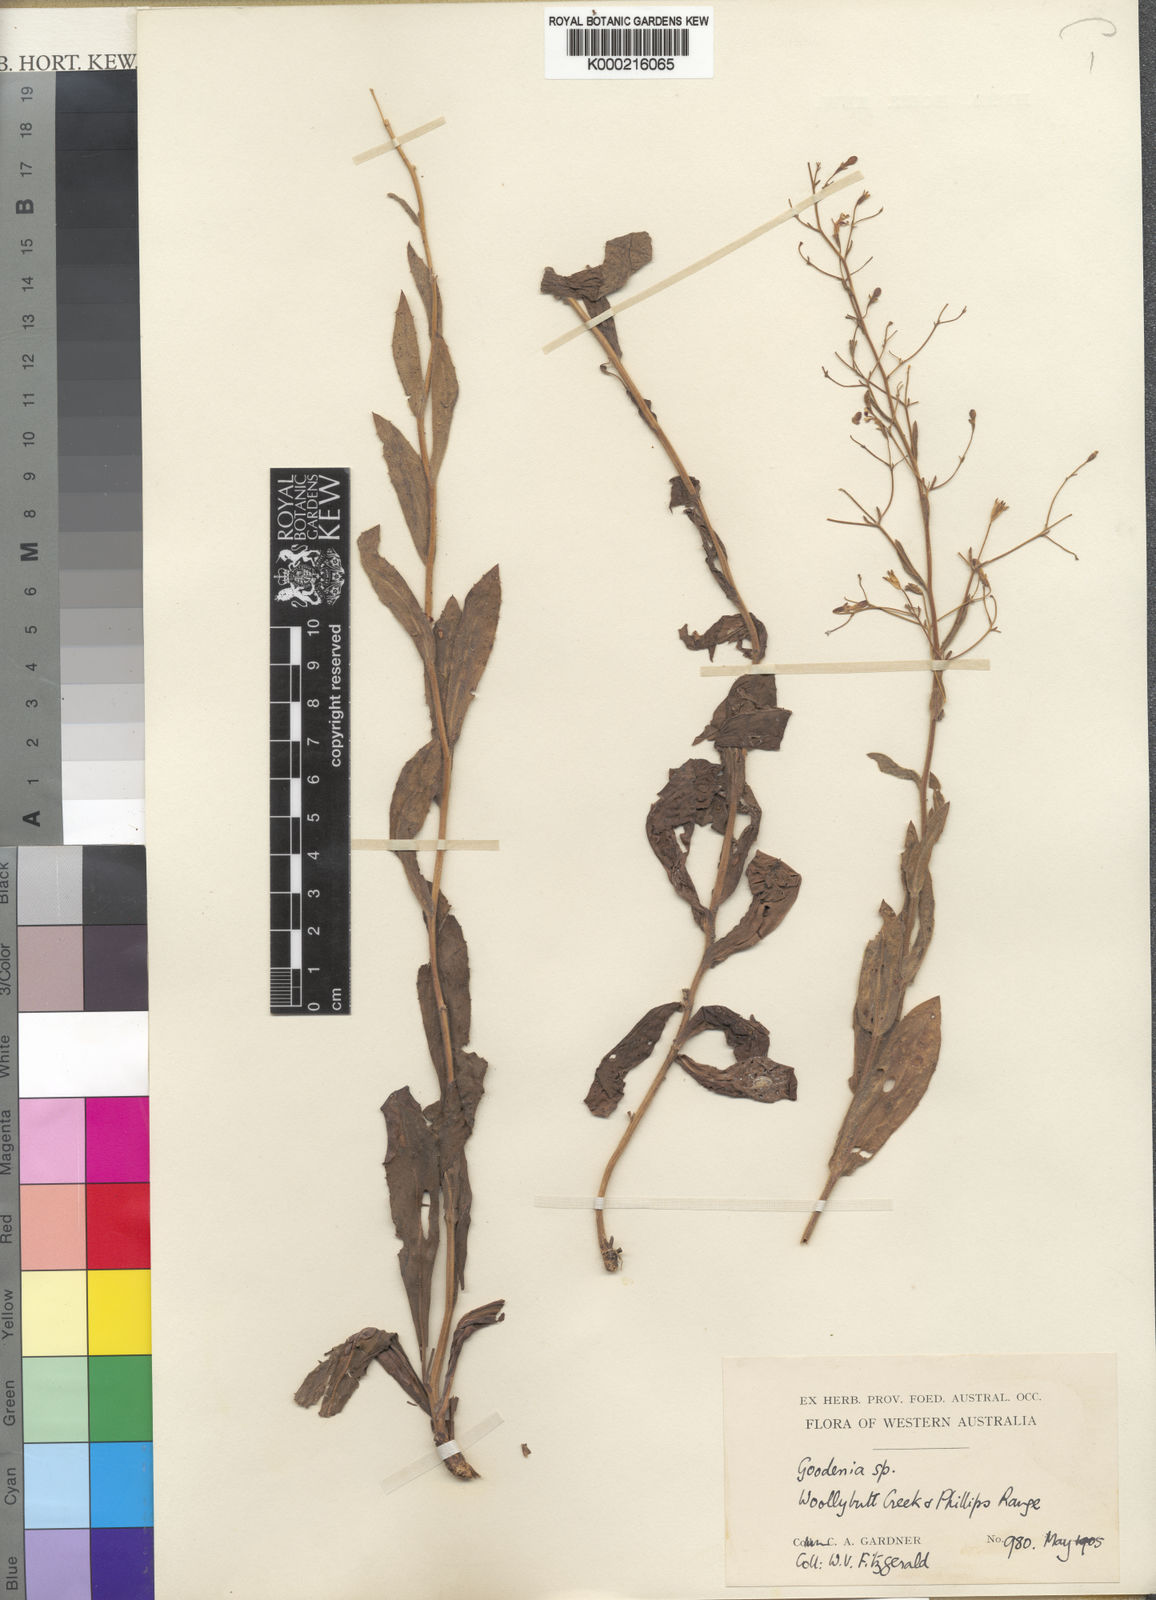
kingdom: Plantae
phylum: Tracheophyta
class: Magnoliopsida
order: Asterales
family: Goodeniaceae
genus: Goodenia
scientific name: Goodenia
